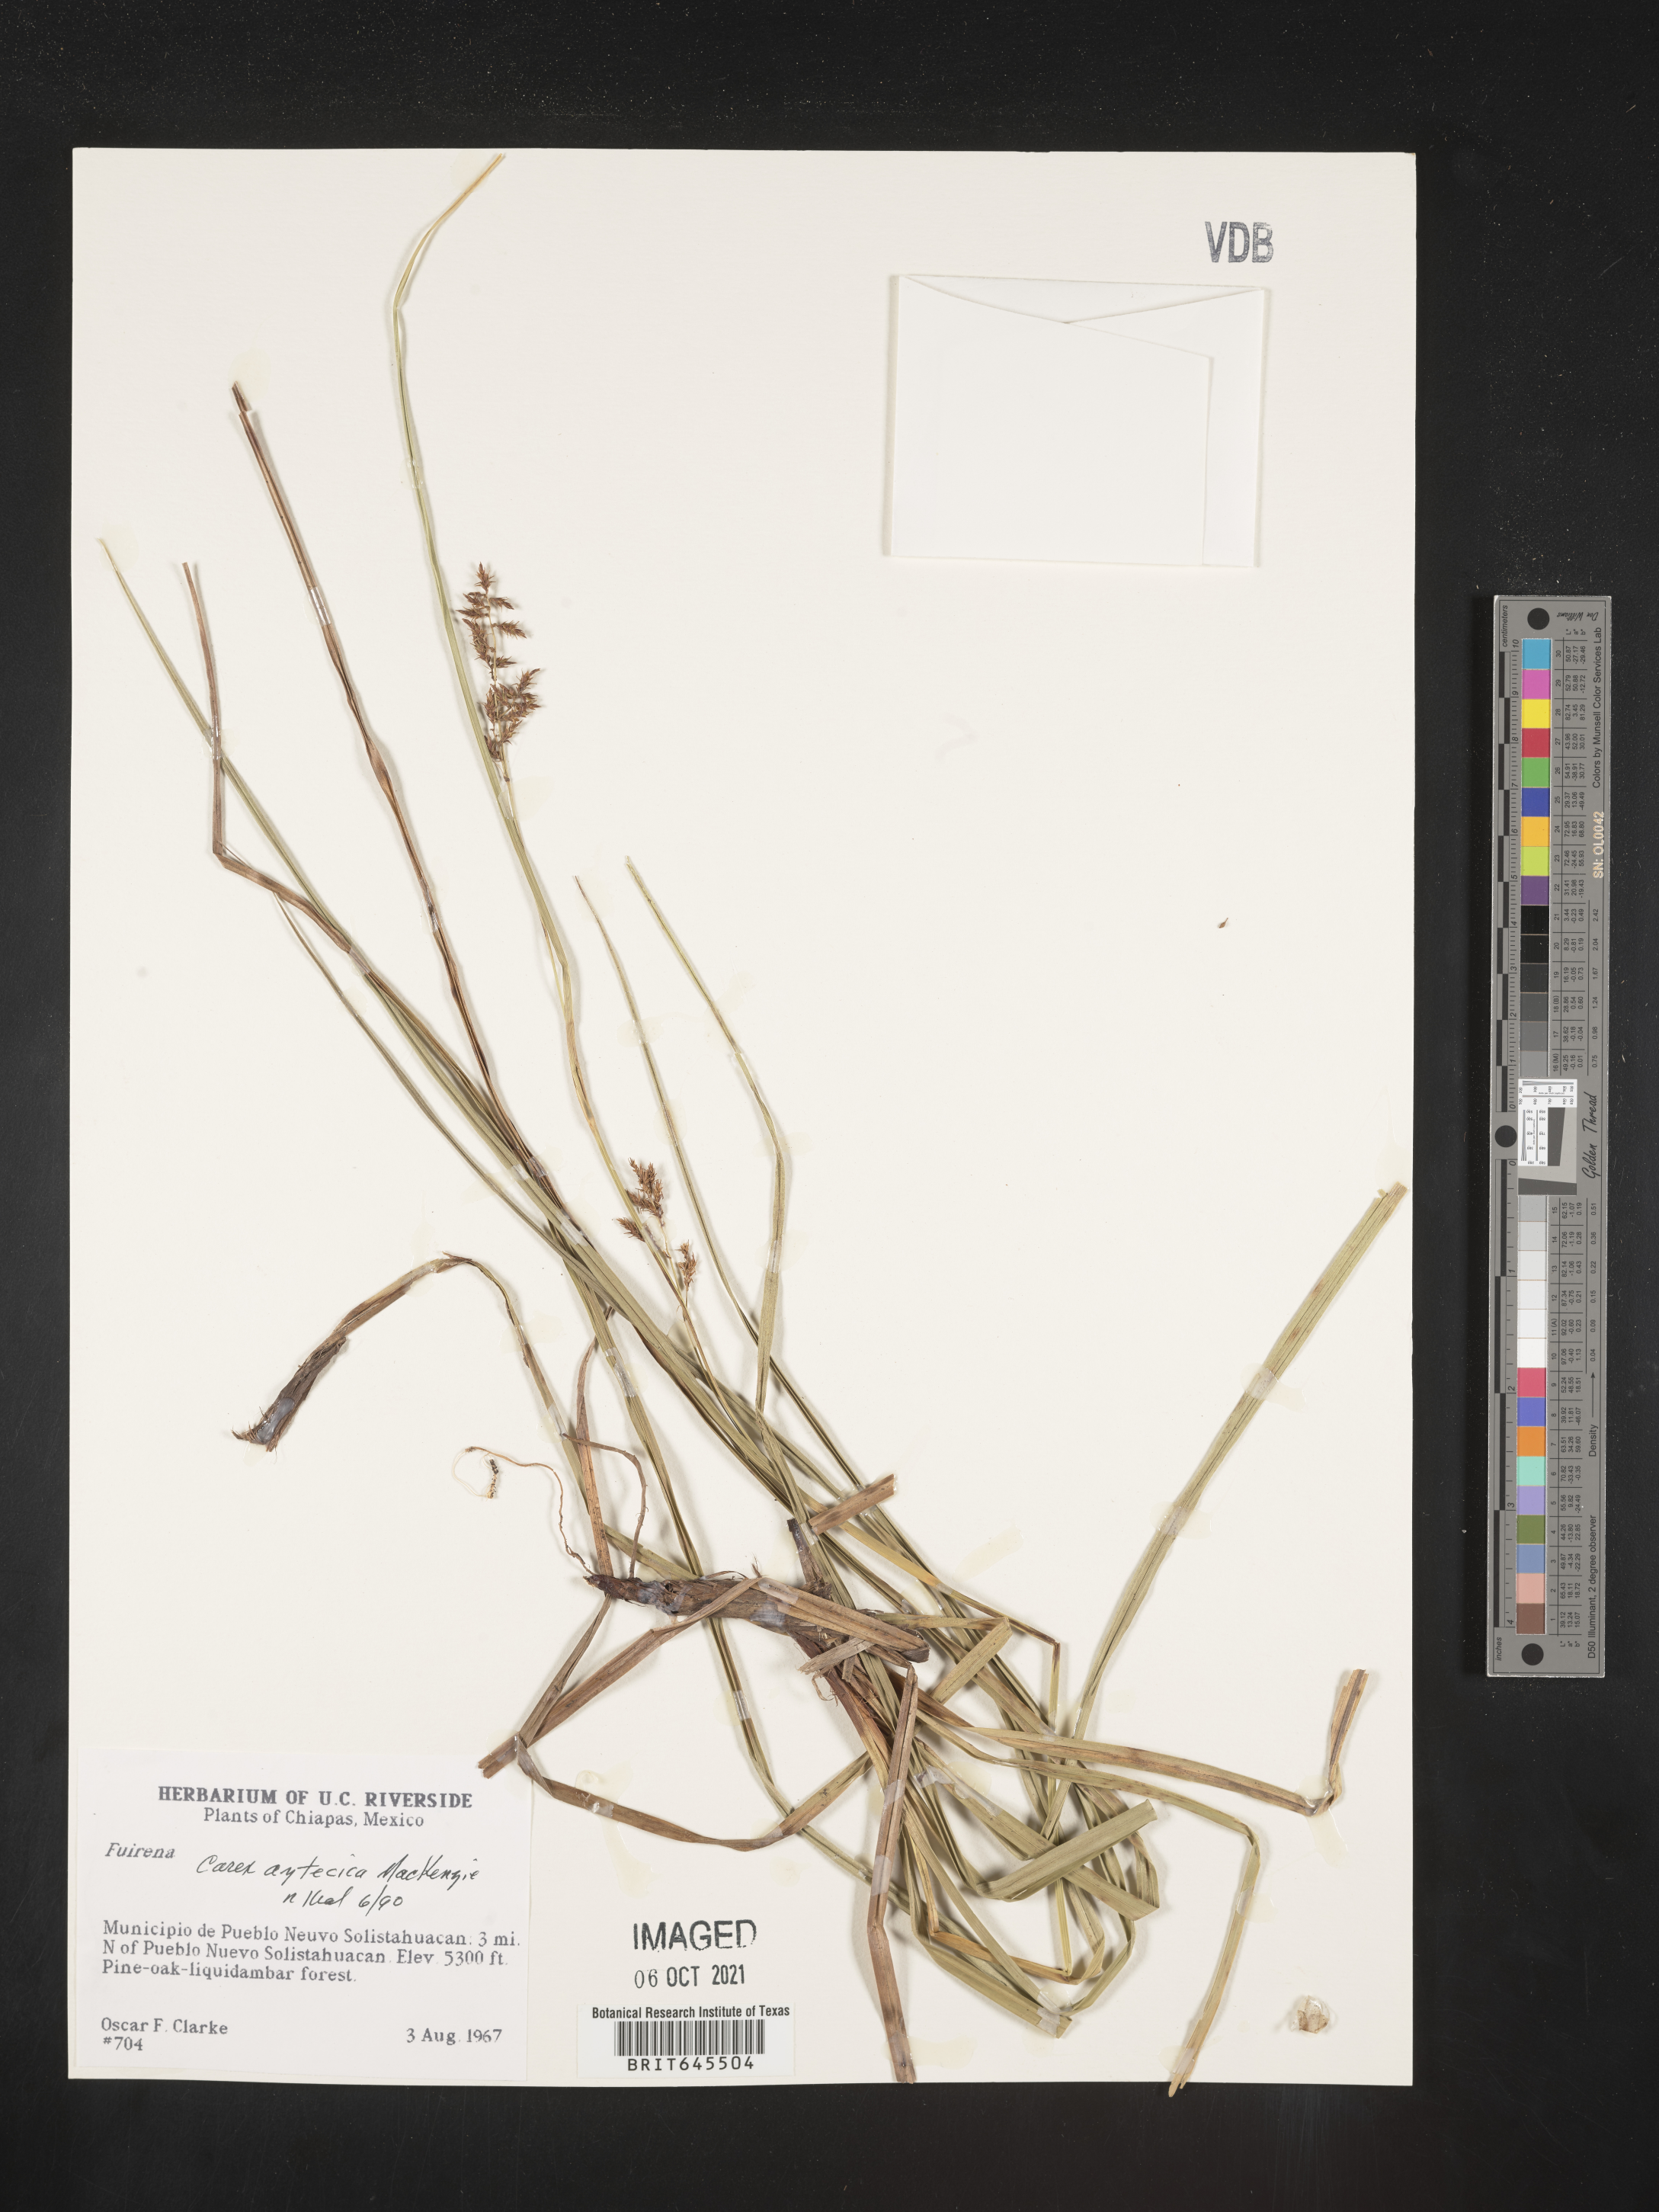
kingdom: Plantae
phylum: Tracheophyta
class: Liliopsida
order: Poales
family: Cyperaceae
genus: Carex
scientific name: Carex
